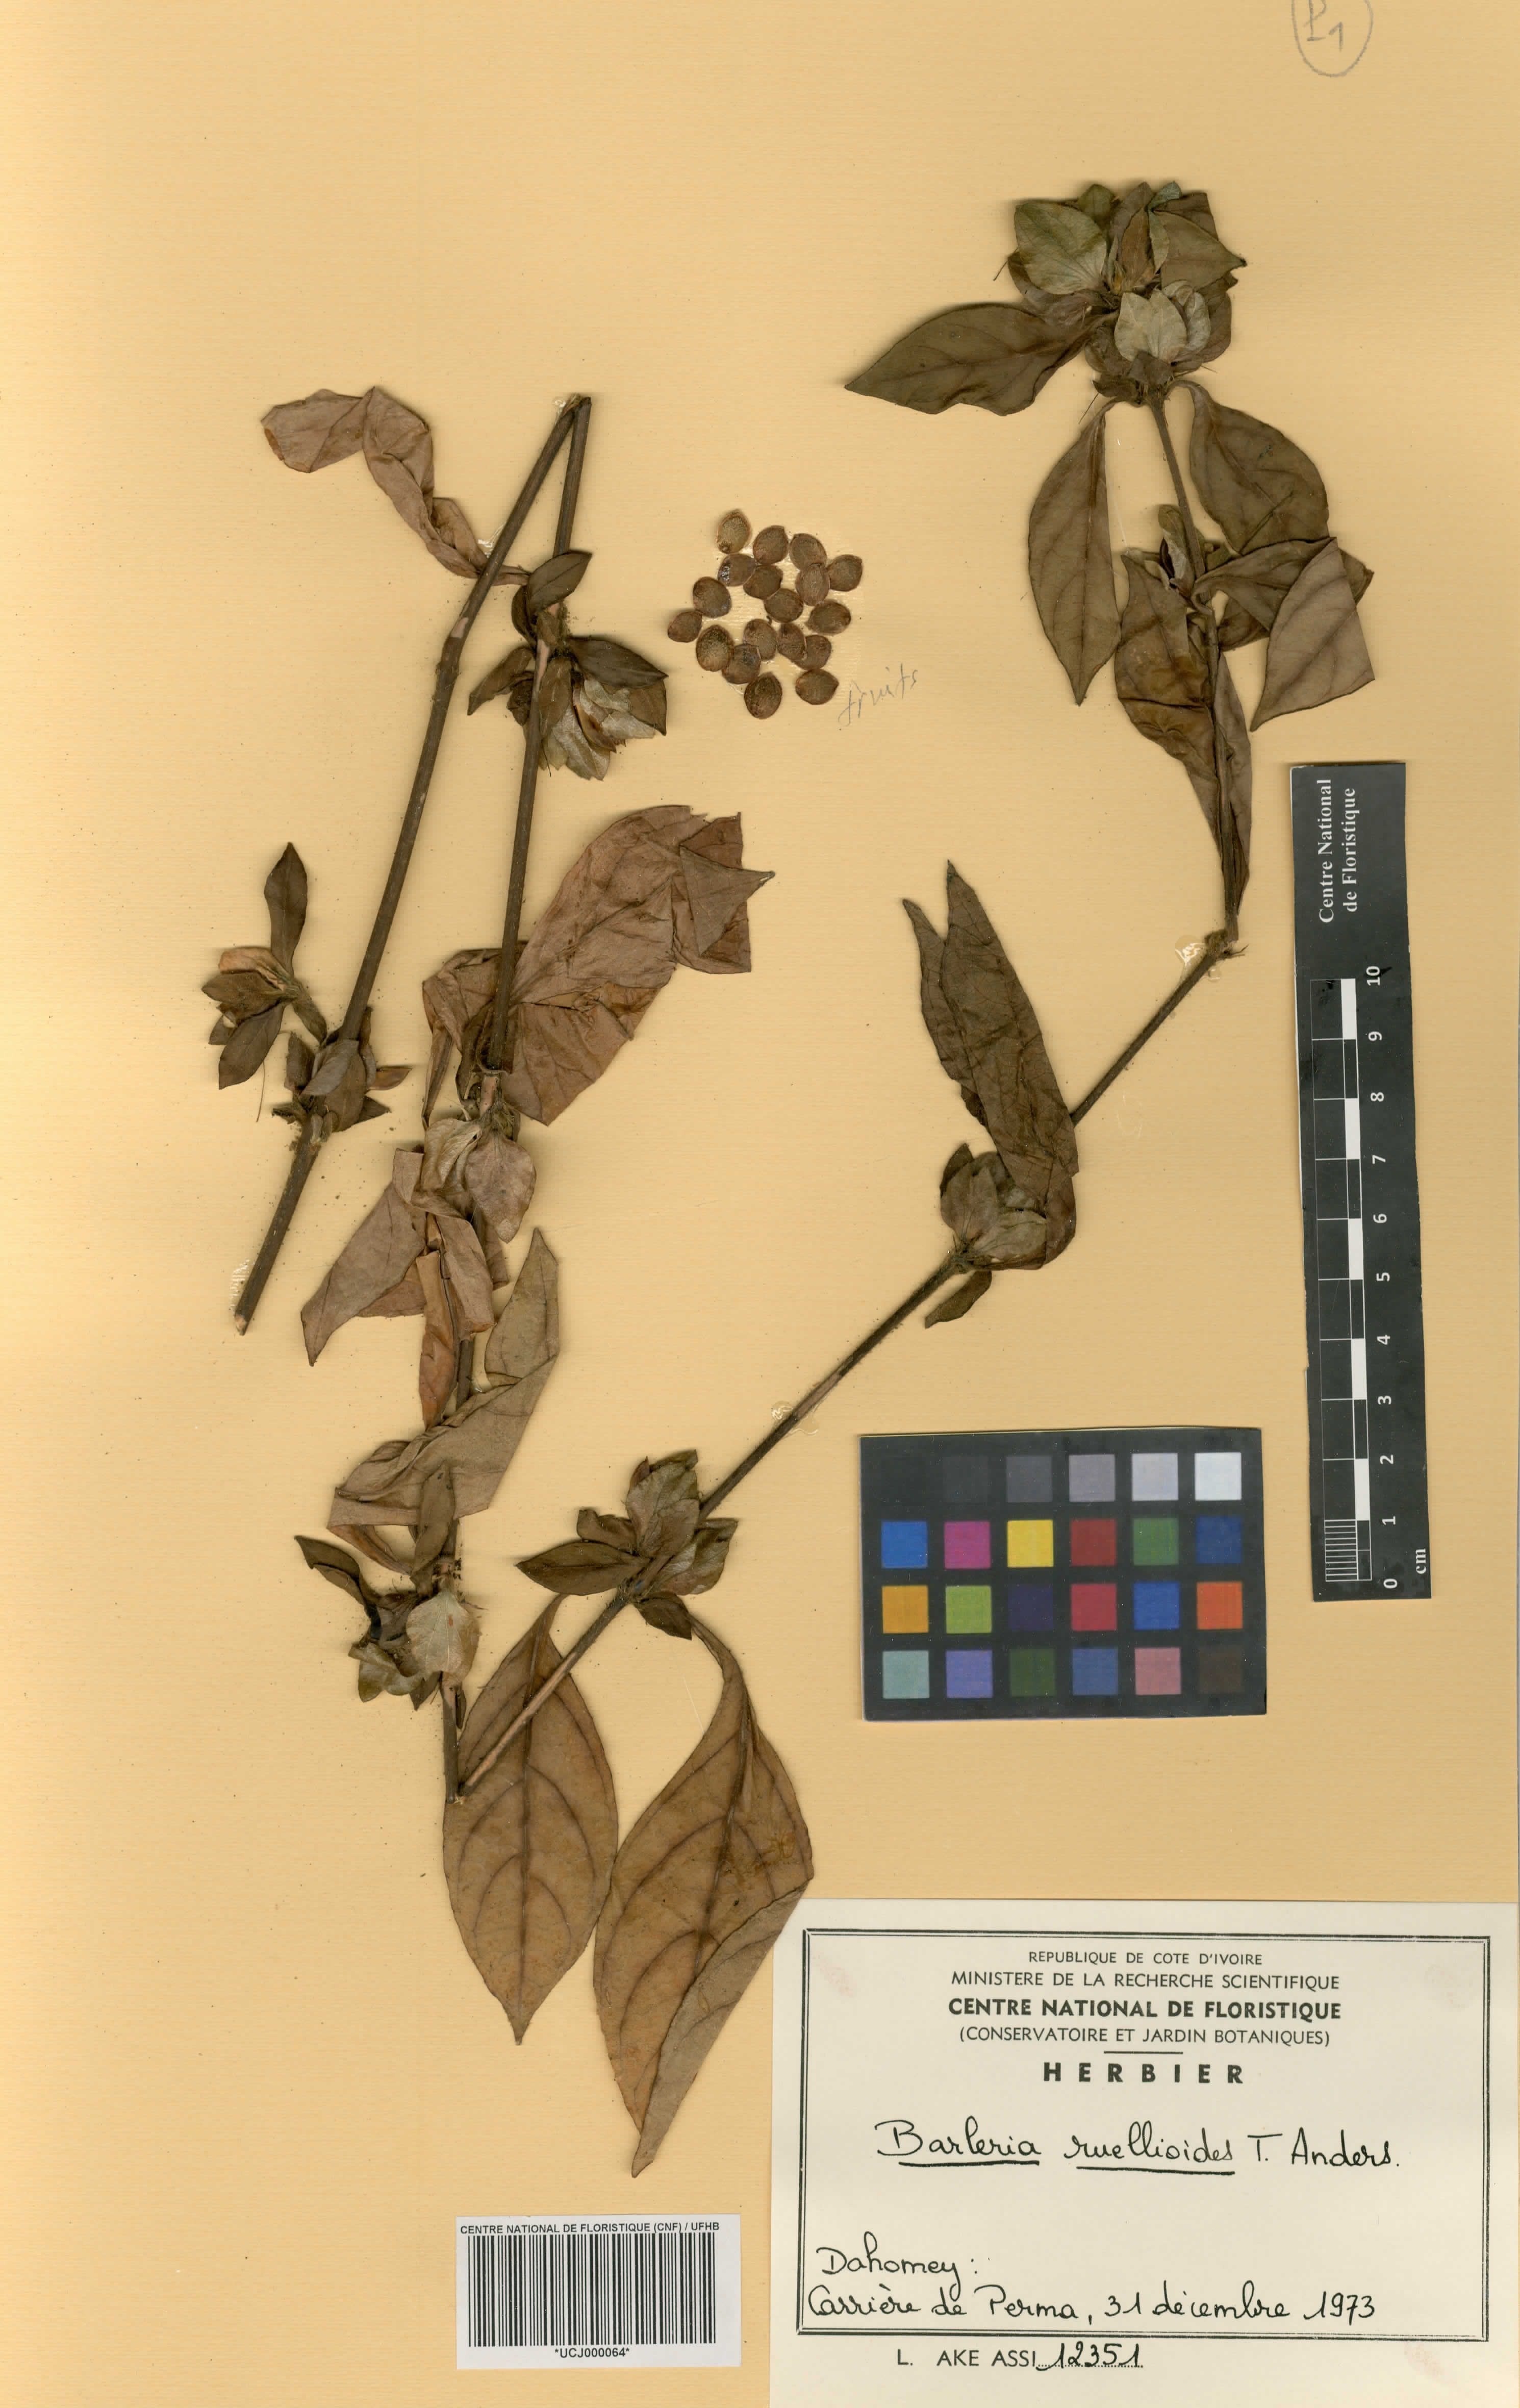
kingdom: Plantae
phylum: Tracheophyta
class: Magnoliopsida
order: Lamiales
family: Acanthaceae
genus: Barleria
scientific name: Barleria ruellioides
